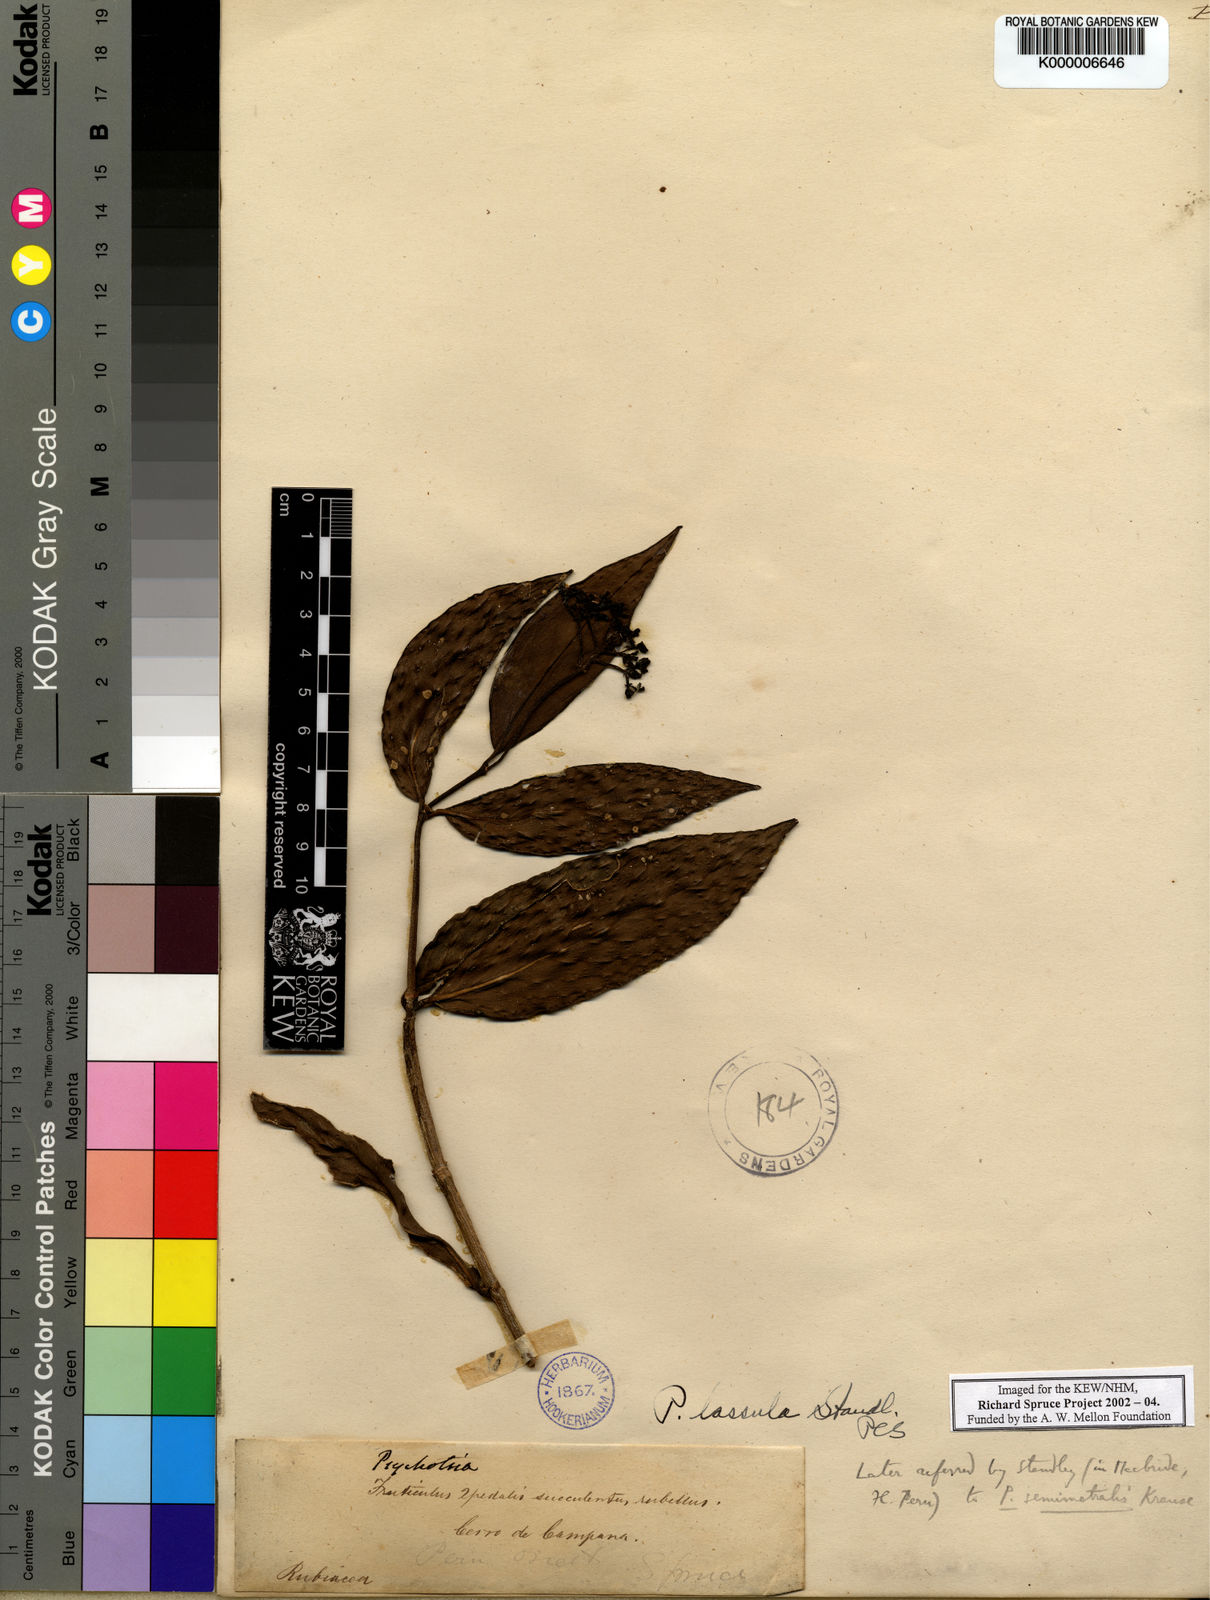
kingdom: Plantae
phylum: Tracheophyta
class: Magnoliopsida
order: Gentianales
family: Rubiaceae
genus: Notopleura
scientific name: Notopleura epiphytica
